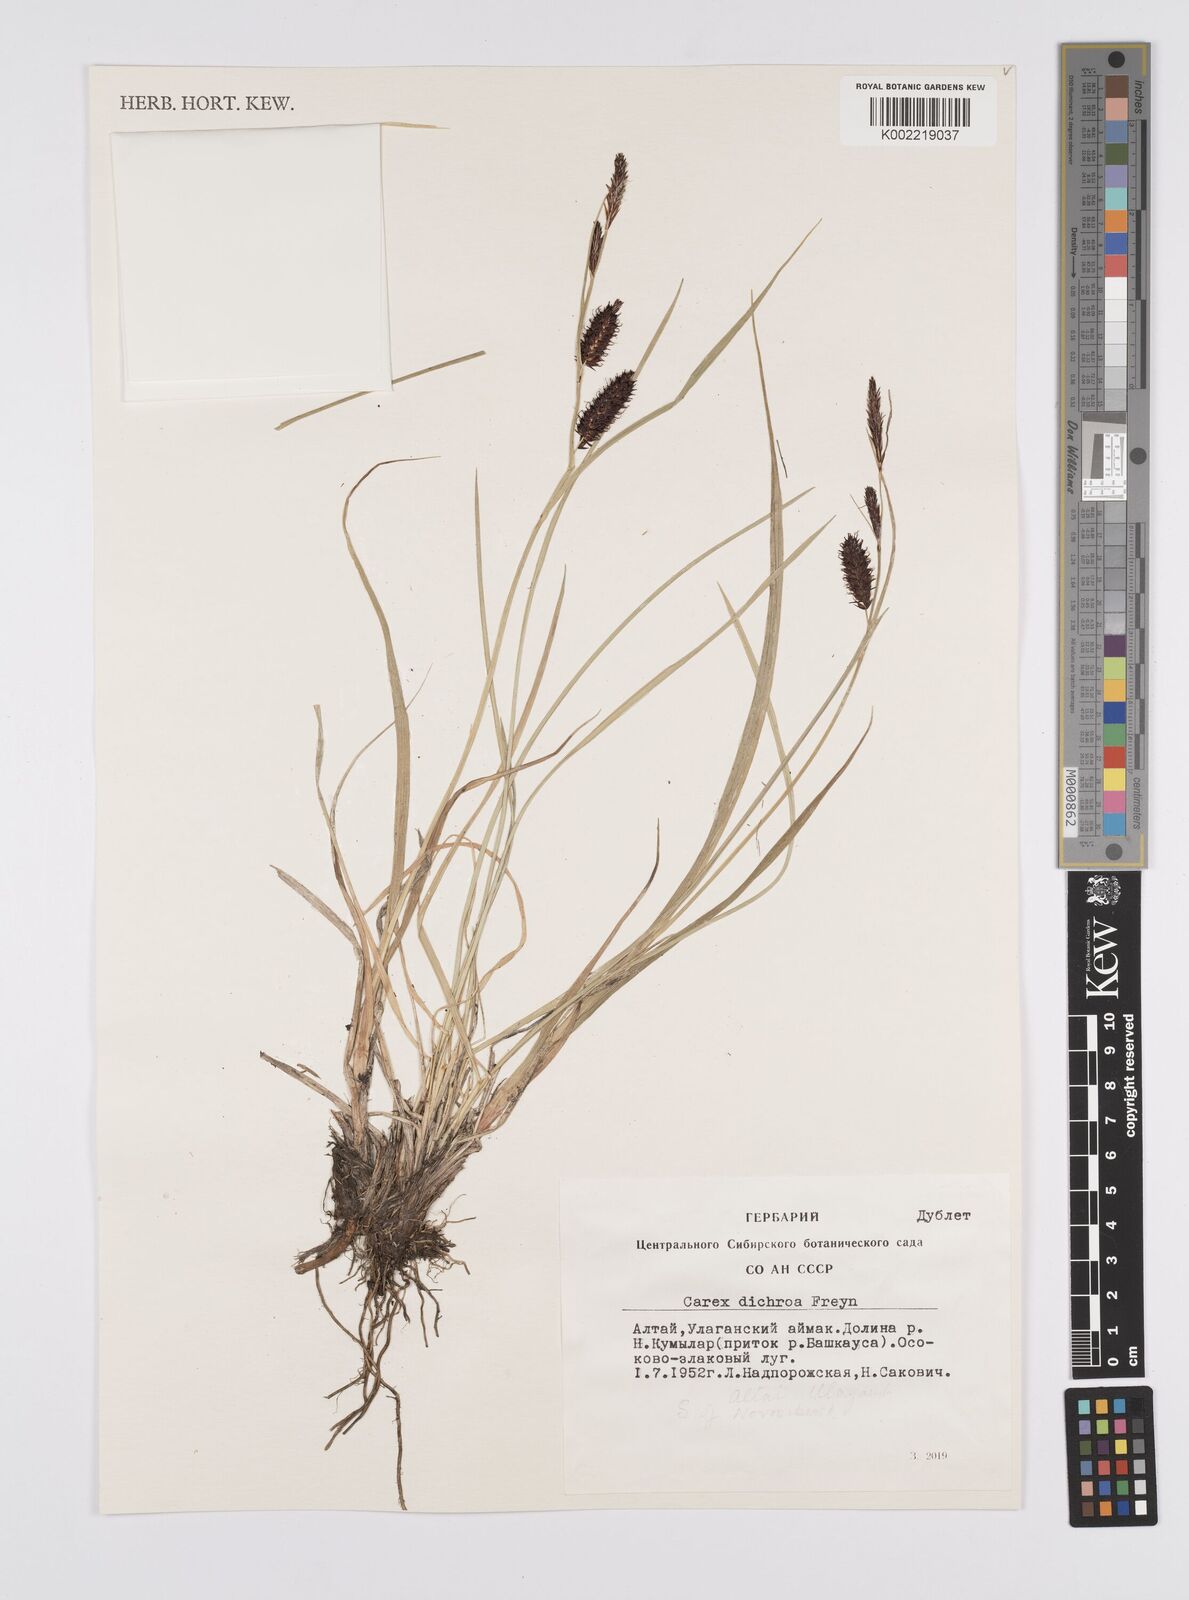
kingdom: Plantae
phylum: Tracheophyta
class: Liliopsida
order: Poales
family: Cyperaceae
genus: Carex
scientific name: Carex
